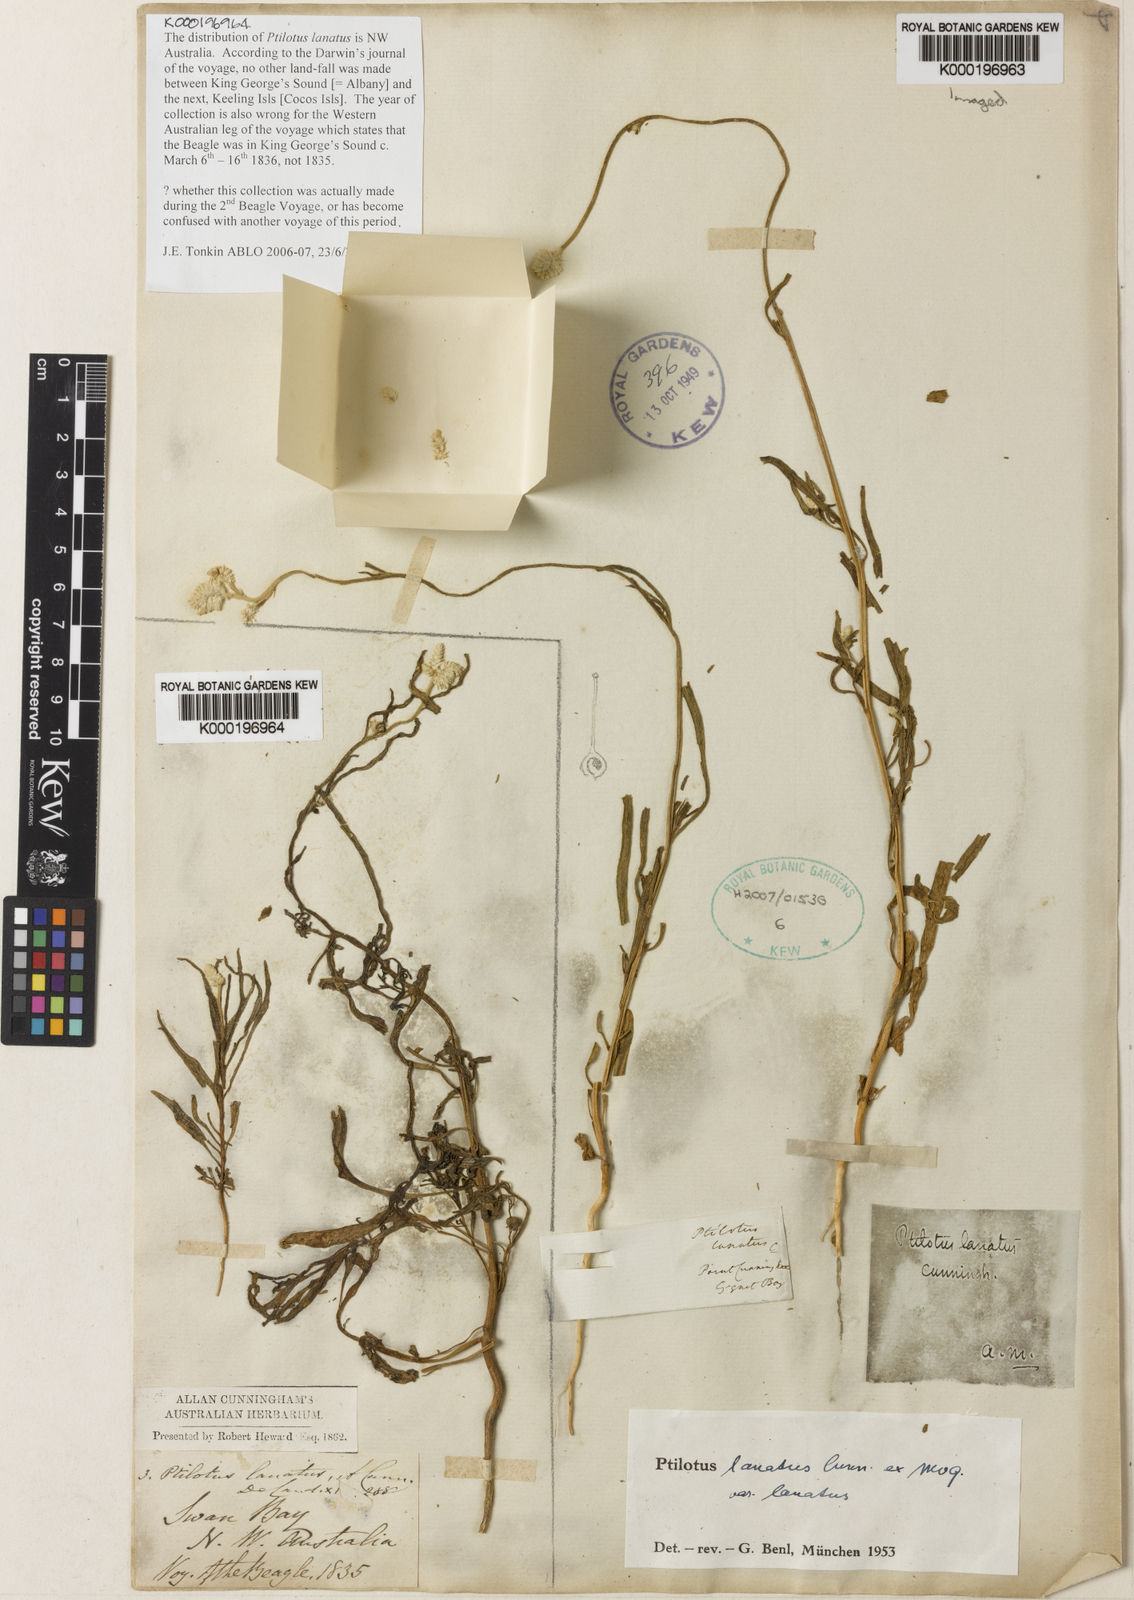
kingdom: Plantae
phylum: Tracheophyta
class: Magnoliopsida
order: Caryophyllales
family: Amaranthaceae
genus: Ptilotus
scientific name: Ptilotus lanatus
